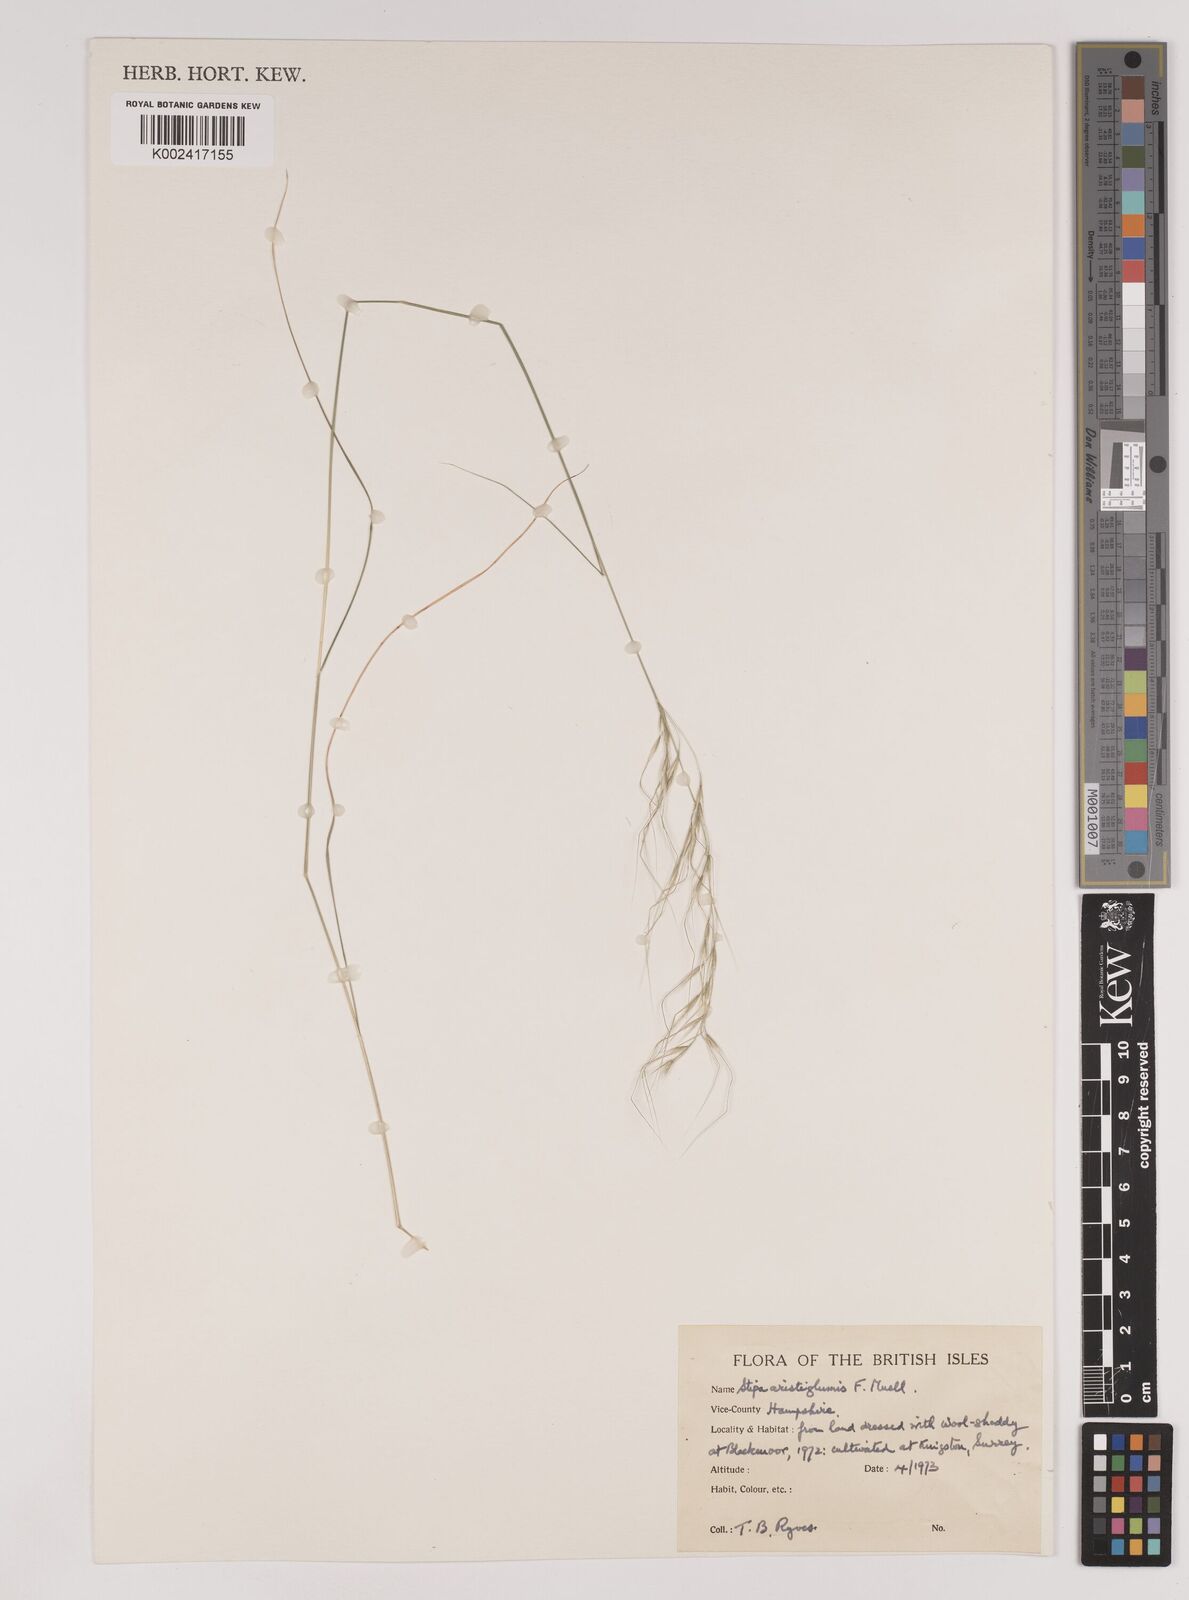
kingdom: Plantae
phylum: Tracheophyta
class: Liliopsida
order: Poales
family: Poaceae
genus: Austrostipa
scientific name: Austrostipa aristiglumis
